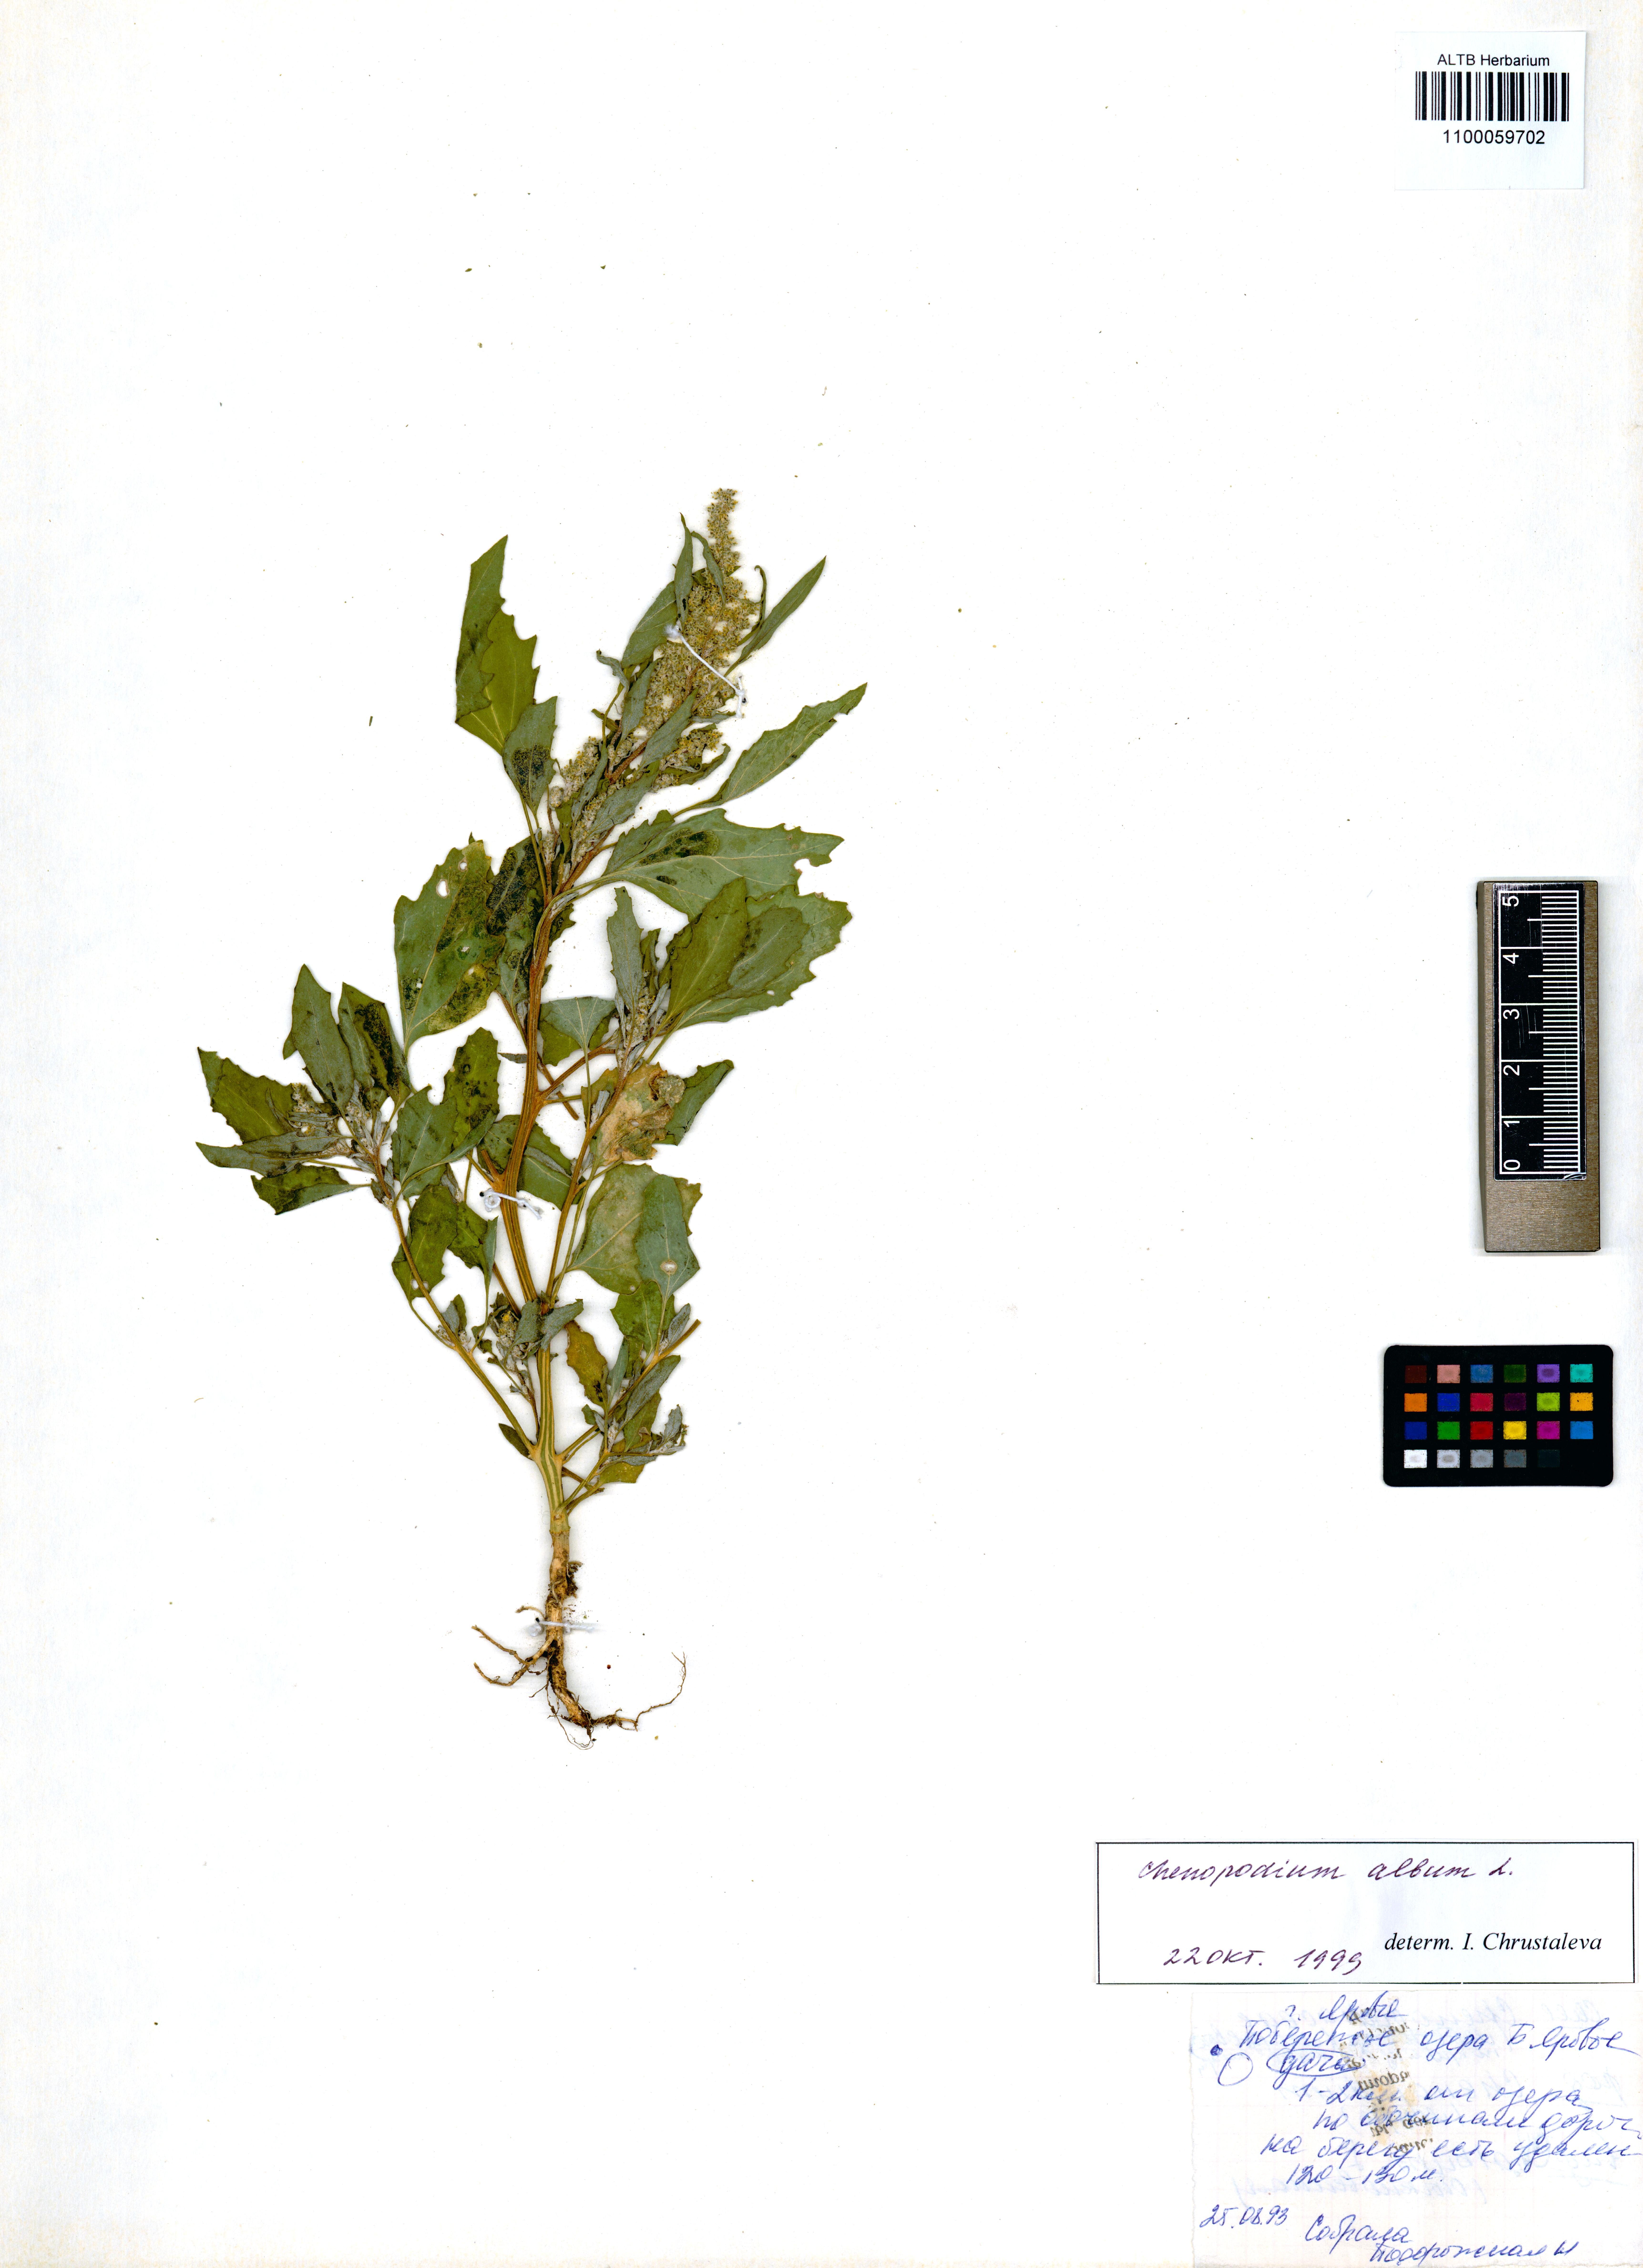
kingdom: Plantae
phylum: Tracheophyta
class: Magnoliopsida
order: Caryophyllales
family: Amaranthaceae
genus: Chenopodium
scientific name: Chenopodium album
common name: Fat-hen
